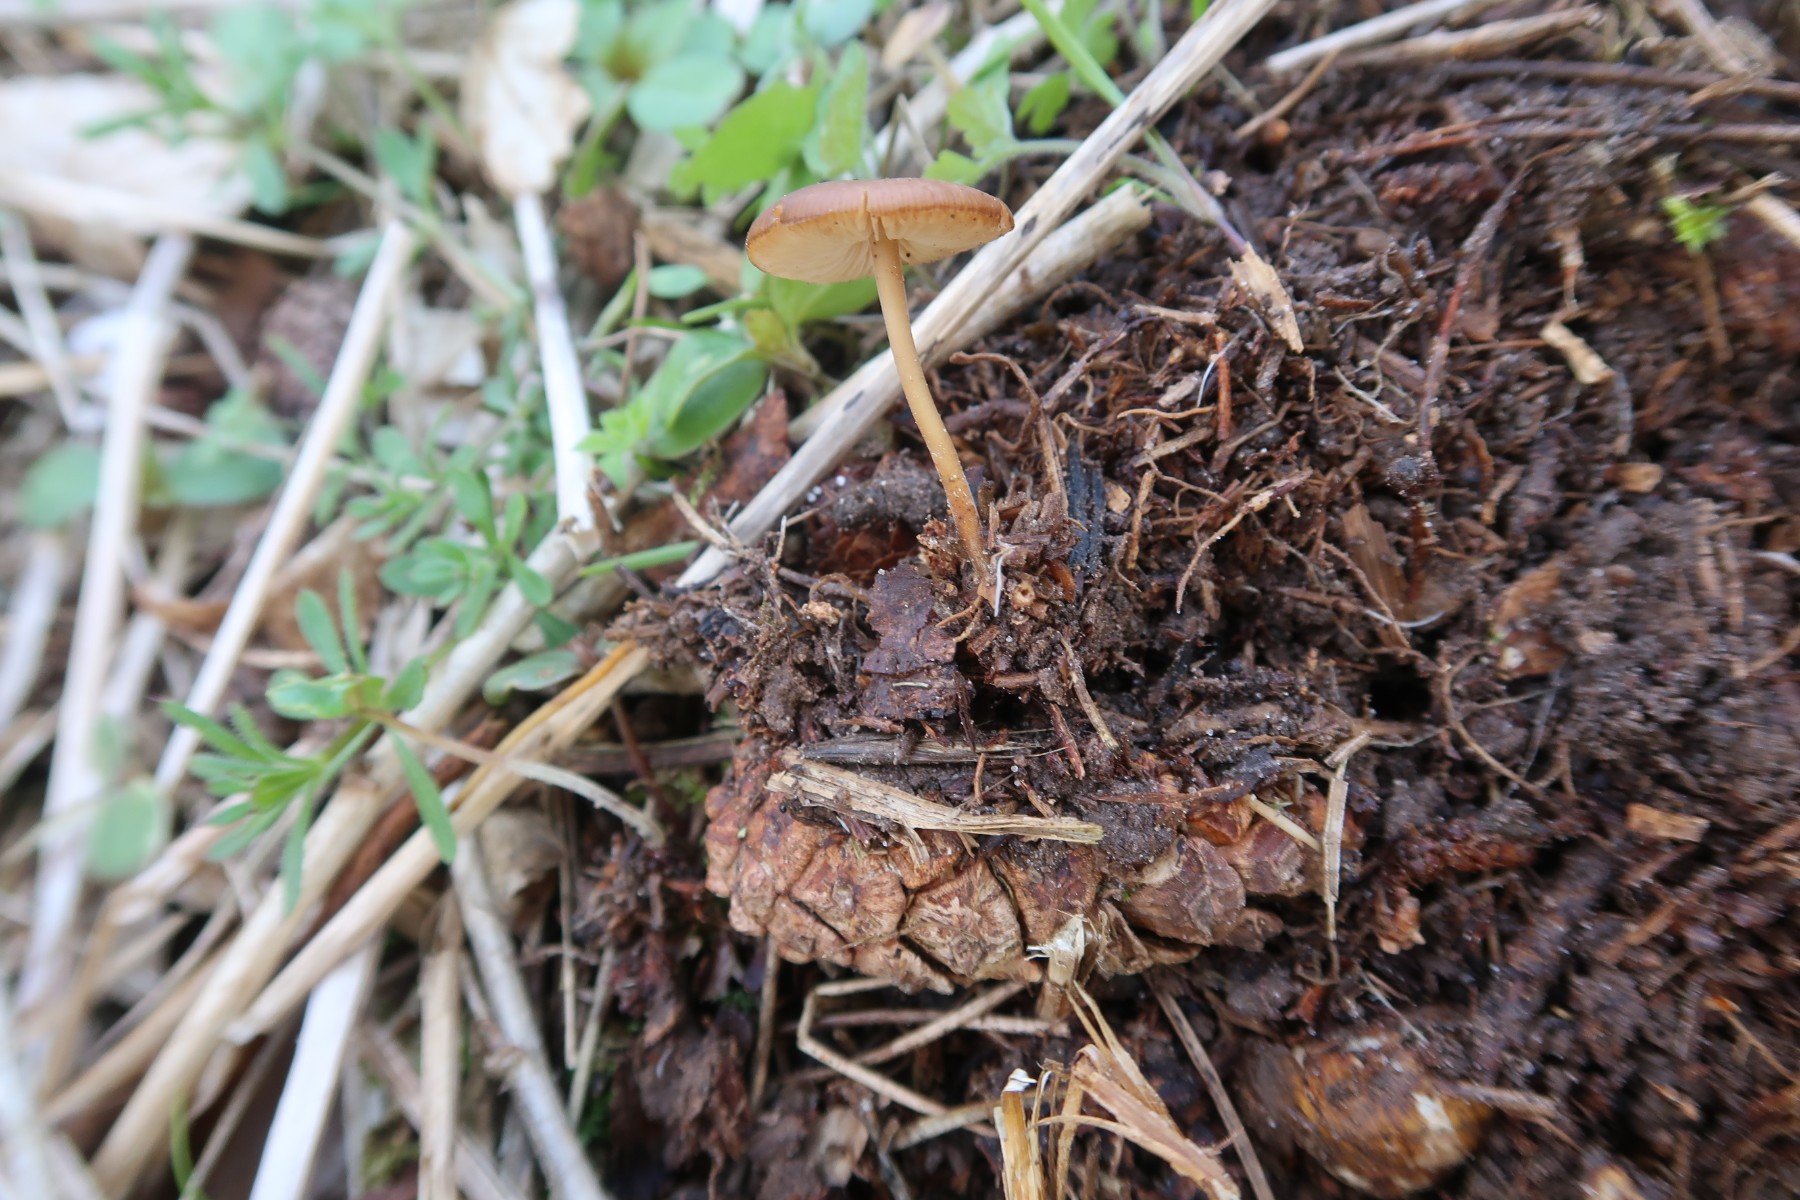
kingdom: Fungi
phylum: Basidiomycota
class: Agaricomycetes
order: Agaricales
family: Physalacriaceae
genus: Strobilurus
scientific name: Strobilurus tenacellus
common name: sommer-koglehat
